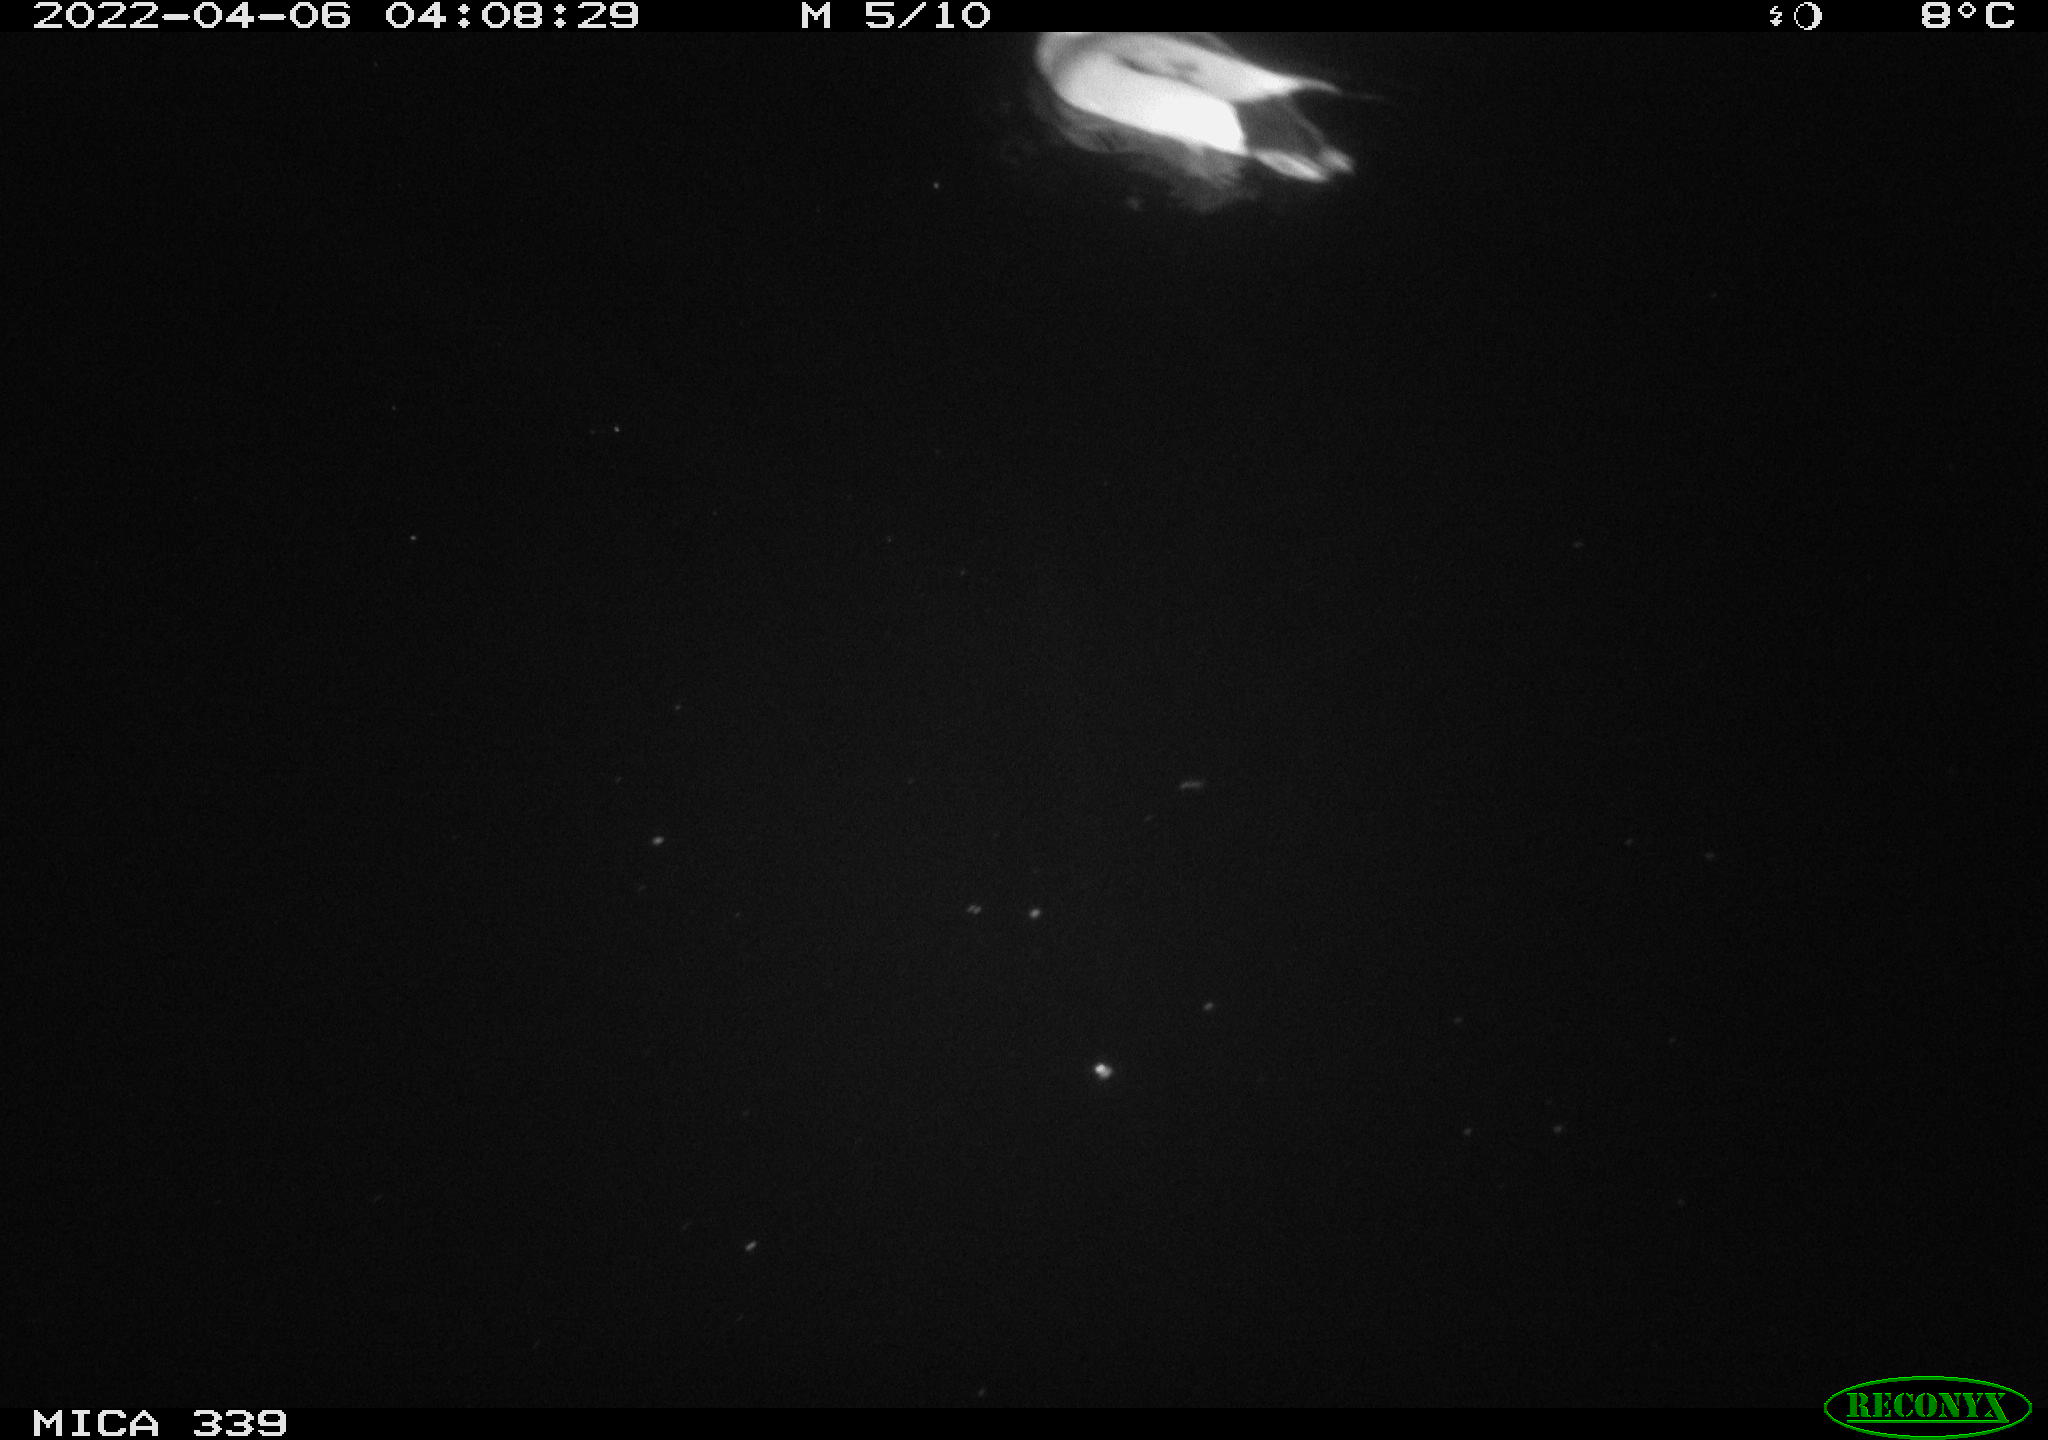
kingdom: Animalia
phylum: Chordata
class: Aves
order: Anseriformes
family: Anatidae
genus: Anas
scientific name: Anas platyrhynchos
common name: Mallard
